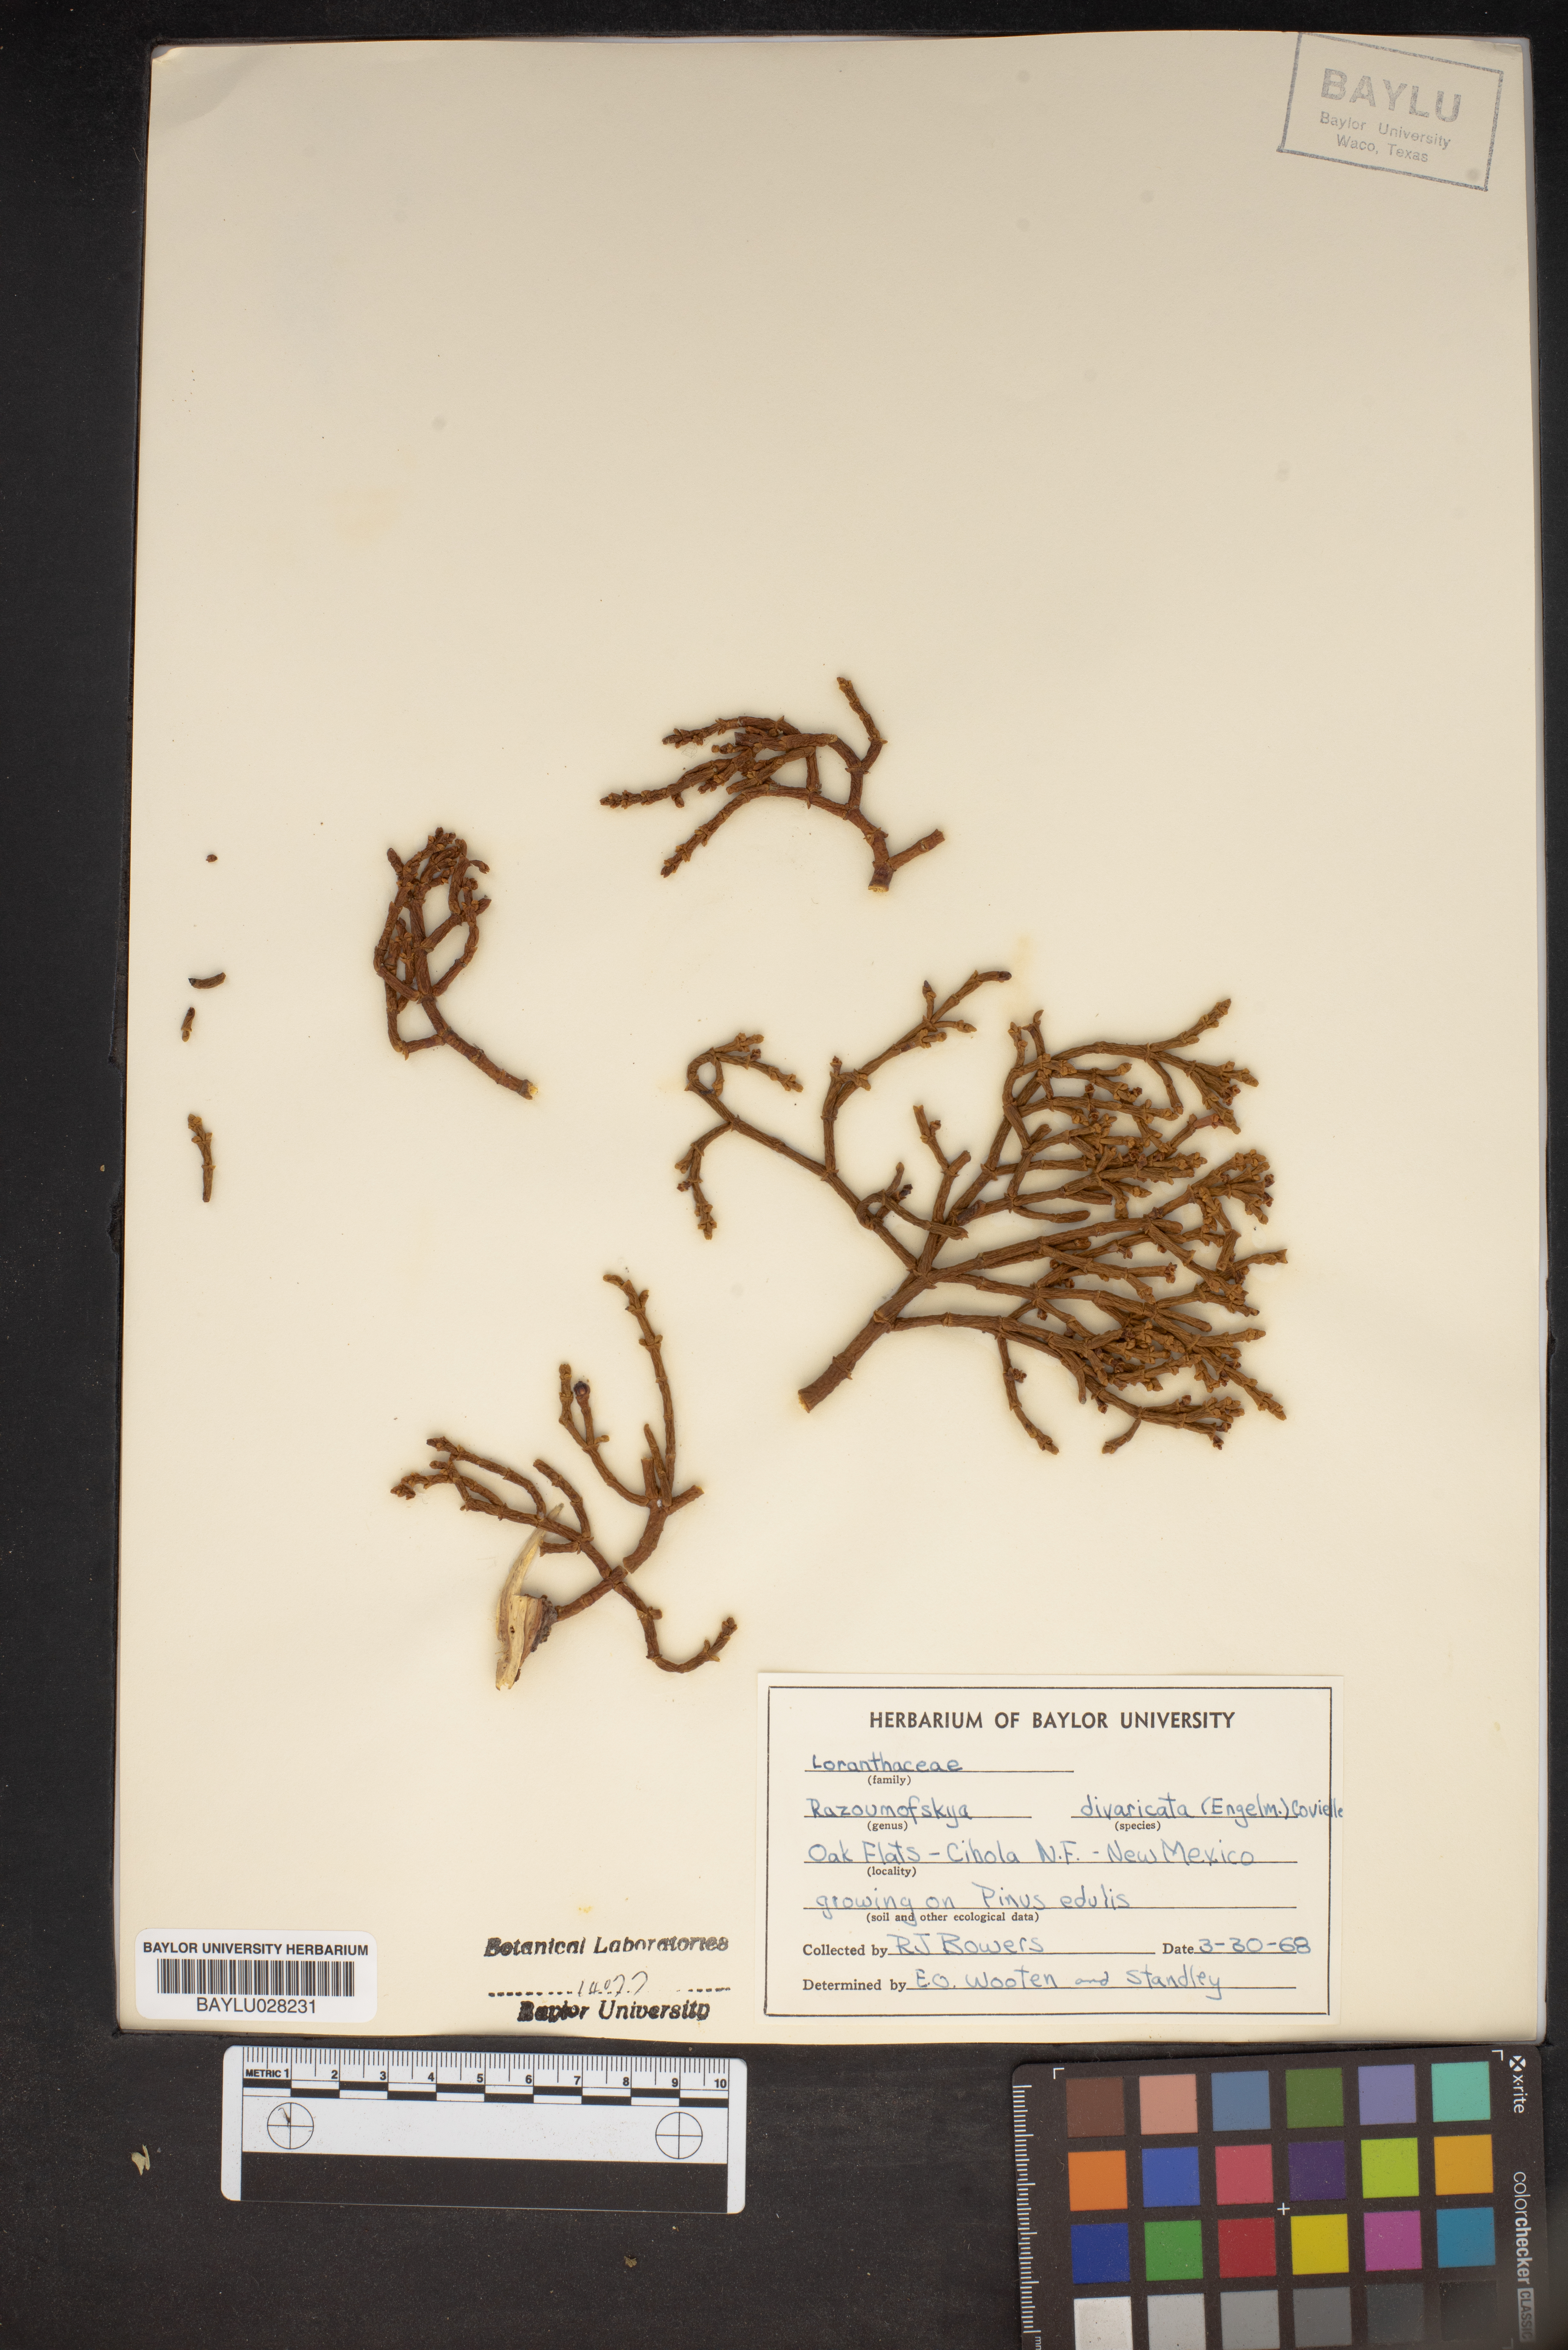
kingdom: Plantae
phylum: Tracheophyta
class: Magnoliopsida
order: Santalales
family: Viscaceae
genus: Arceuthobium
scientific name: Arceuthobium divaricatum
